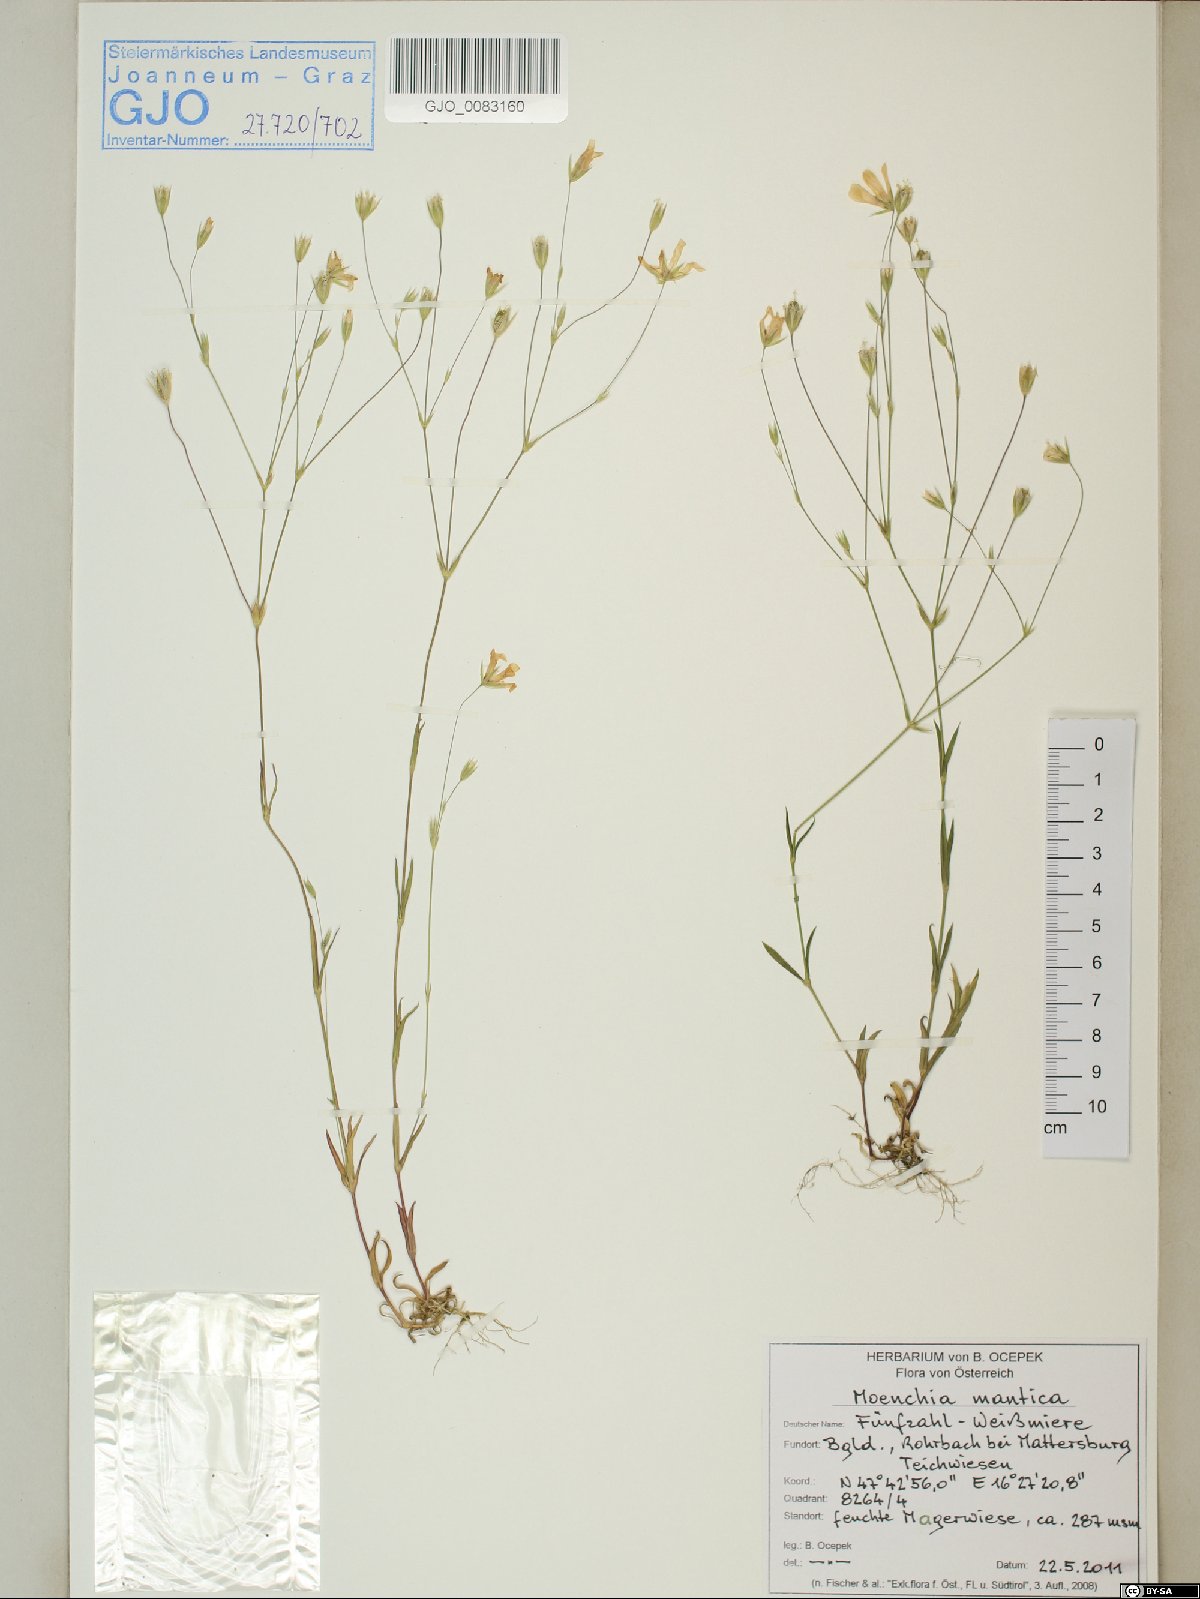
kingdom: Plantae
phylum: Tracheophyta
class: Magnoliopsida
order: Caryophyllales
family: Caryophyllaceae
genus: Moenchia
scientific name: Moenchia mantica
